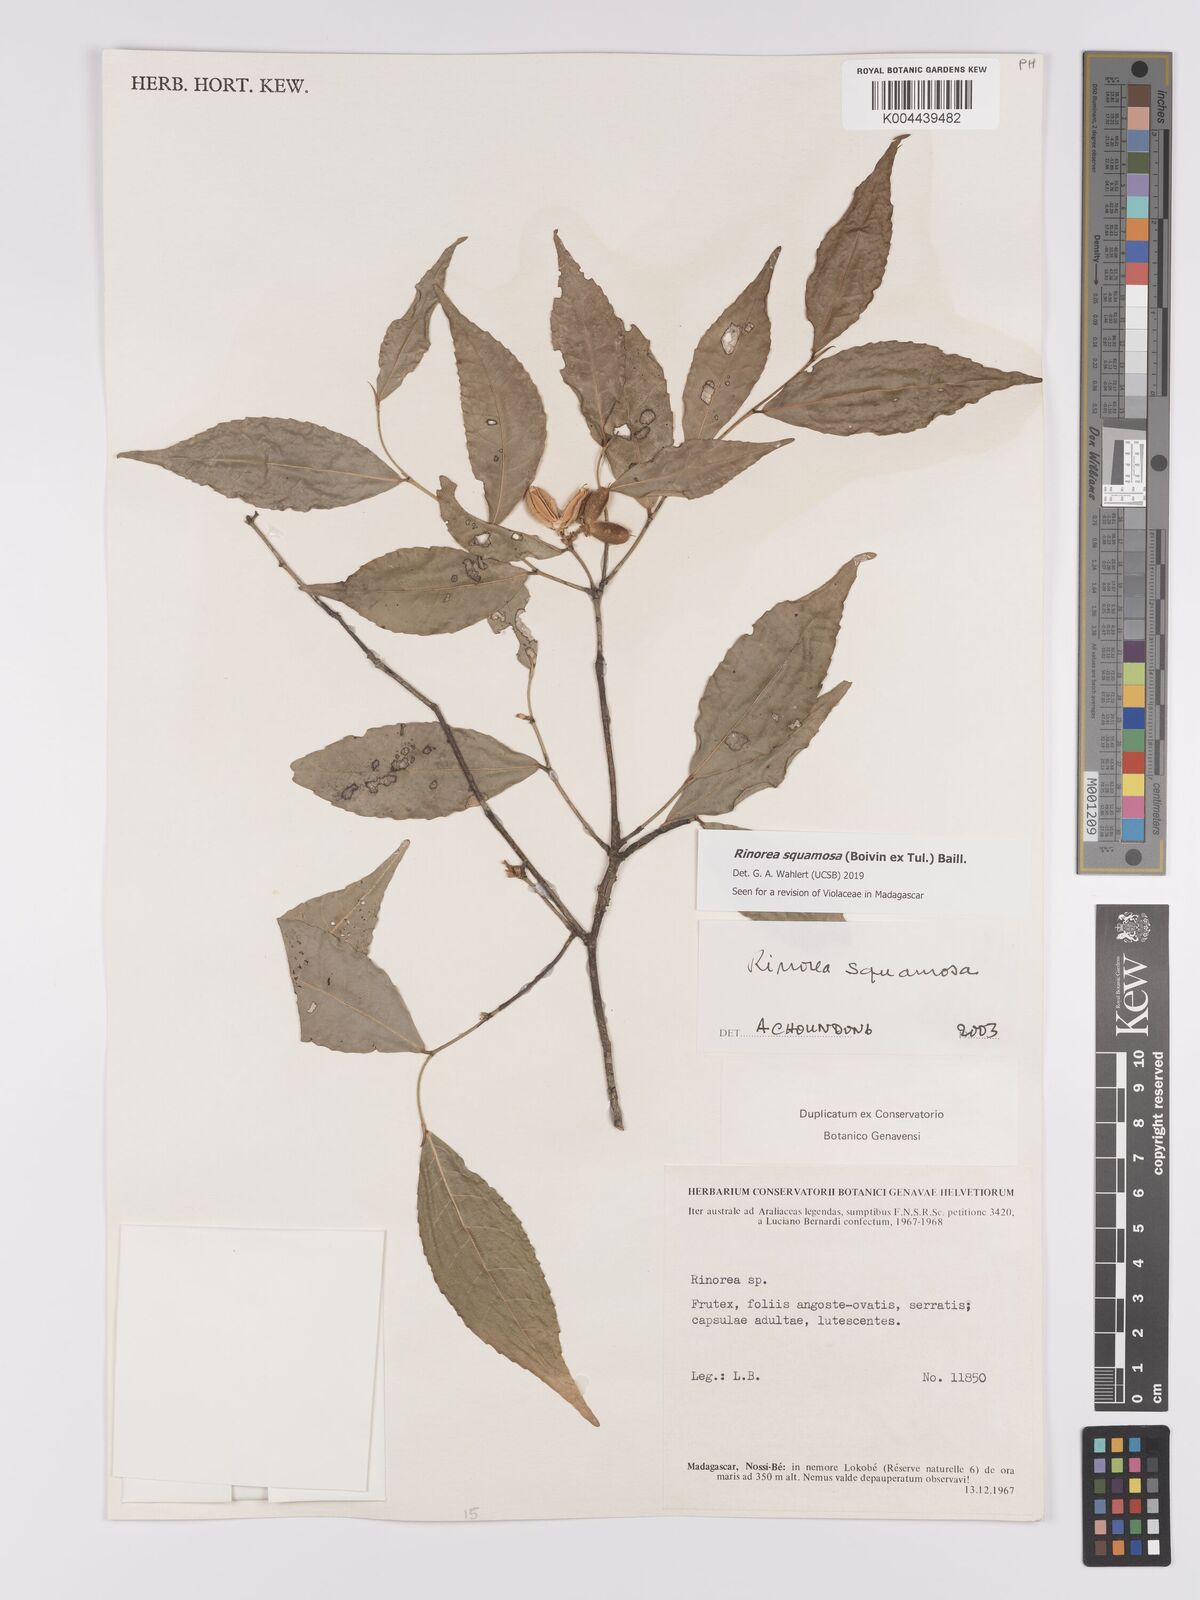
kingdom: Plantae
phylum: Tracheophyta
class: Magnoliopsida
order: Malpighiales
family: Violaceae
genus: Rinorea
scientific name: Rinorea squamosa
